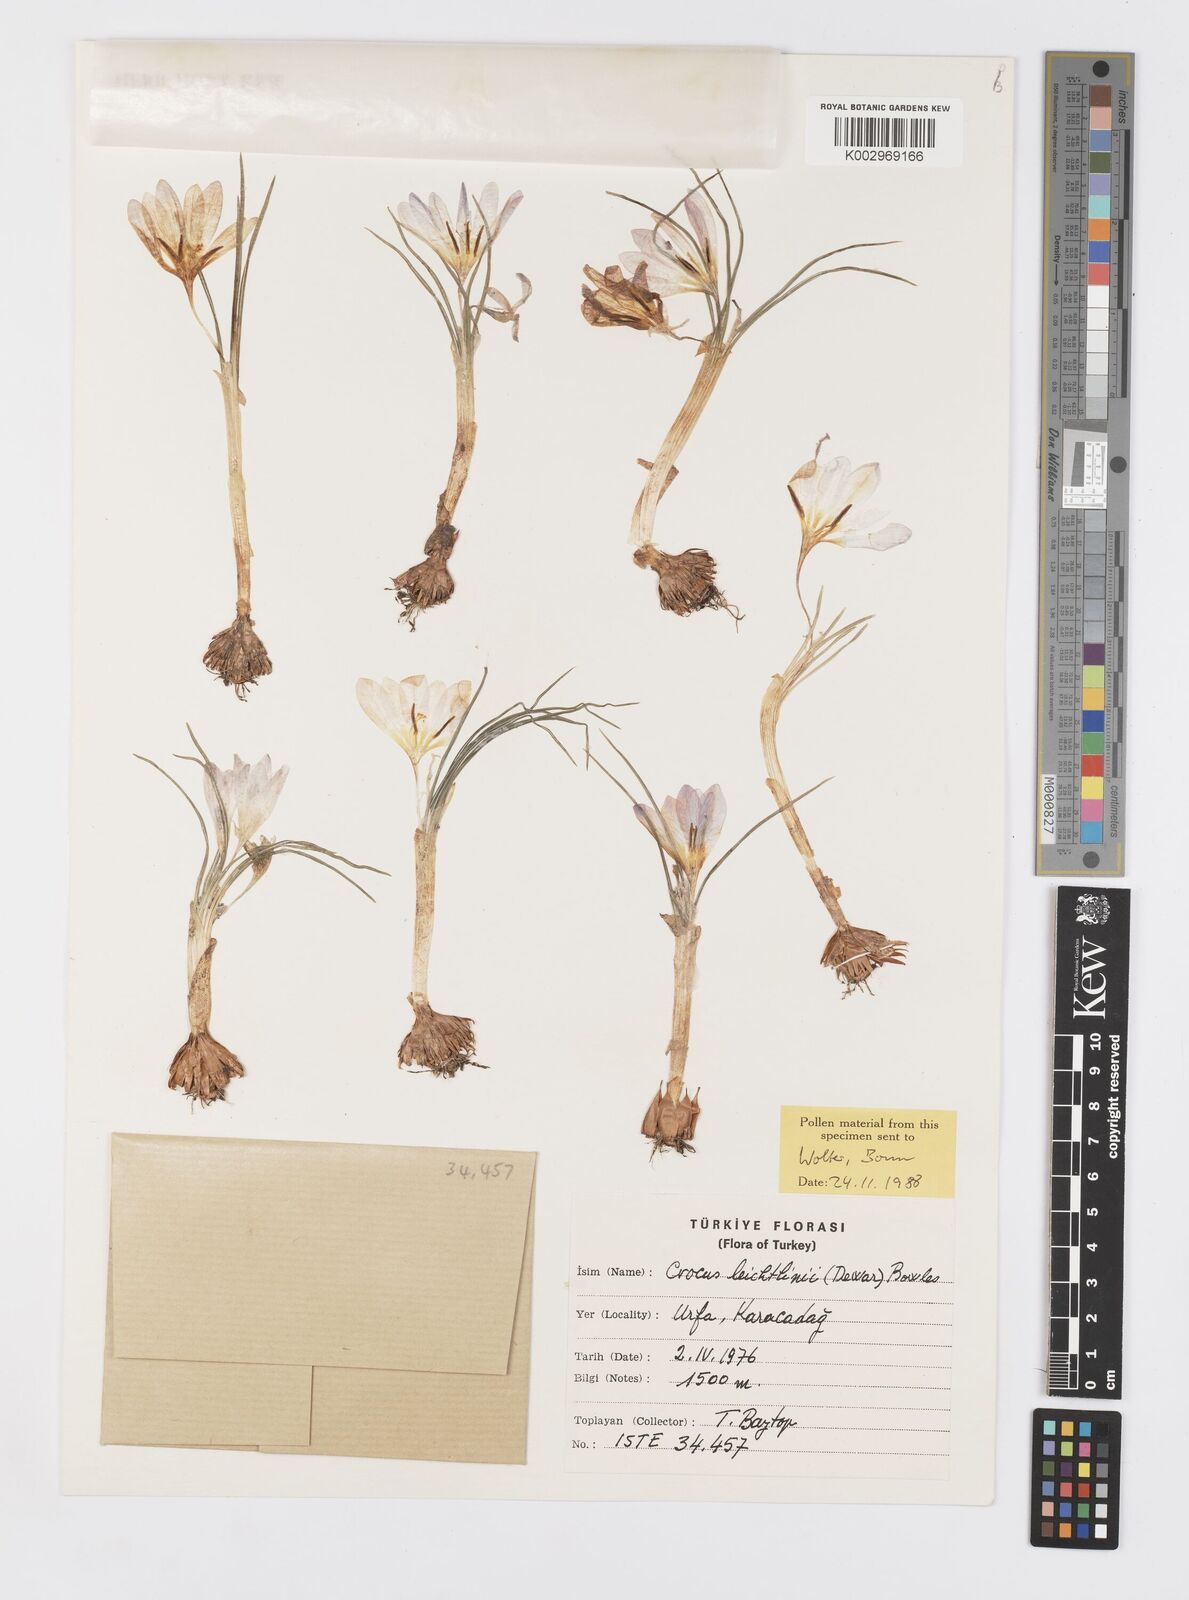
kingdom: Plantae
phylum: Tracheophyta
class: Liliopsida
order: Asparagales
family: Iridaceae
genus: Crocus
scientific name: Crocus leichtlinii
